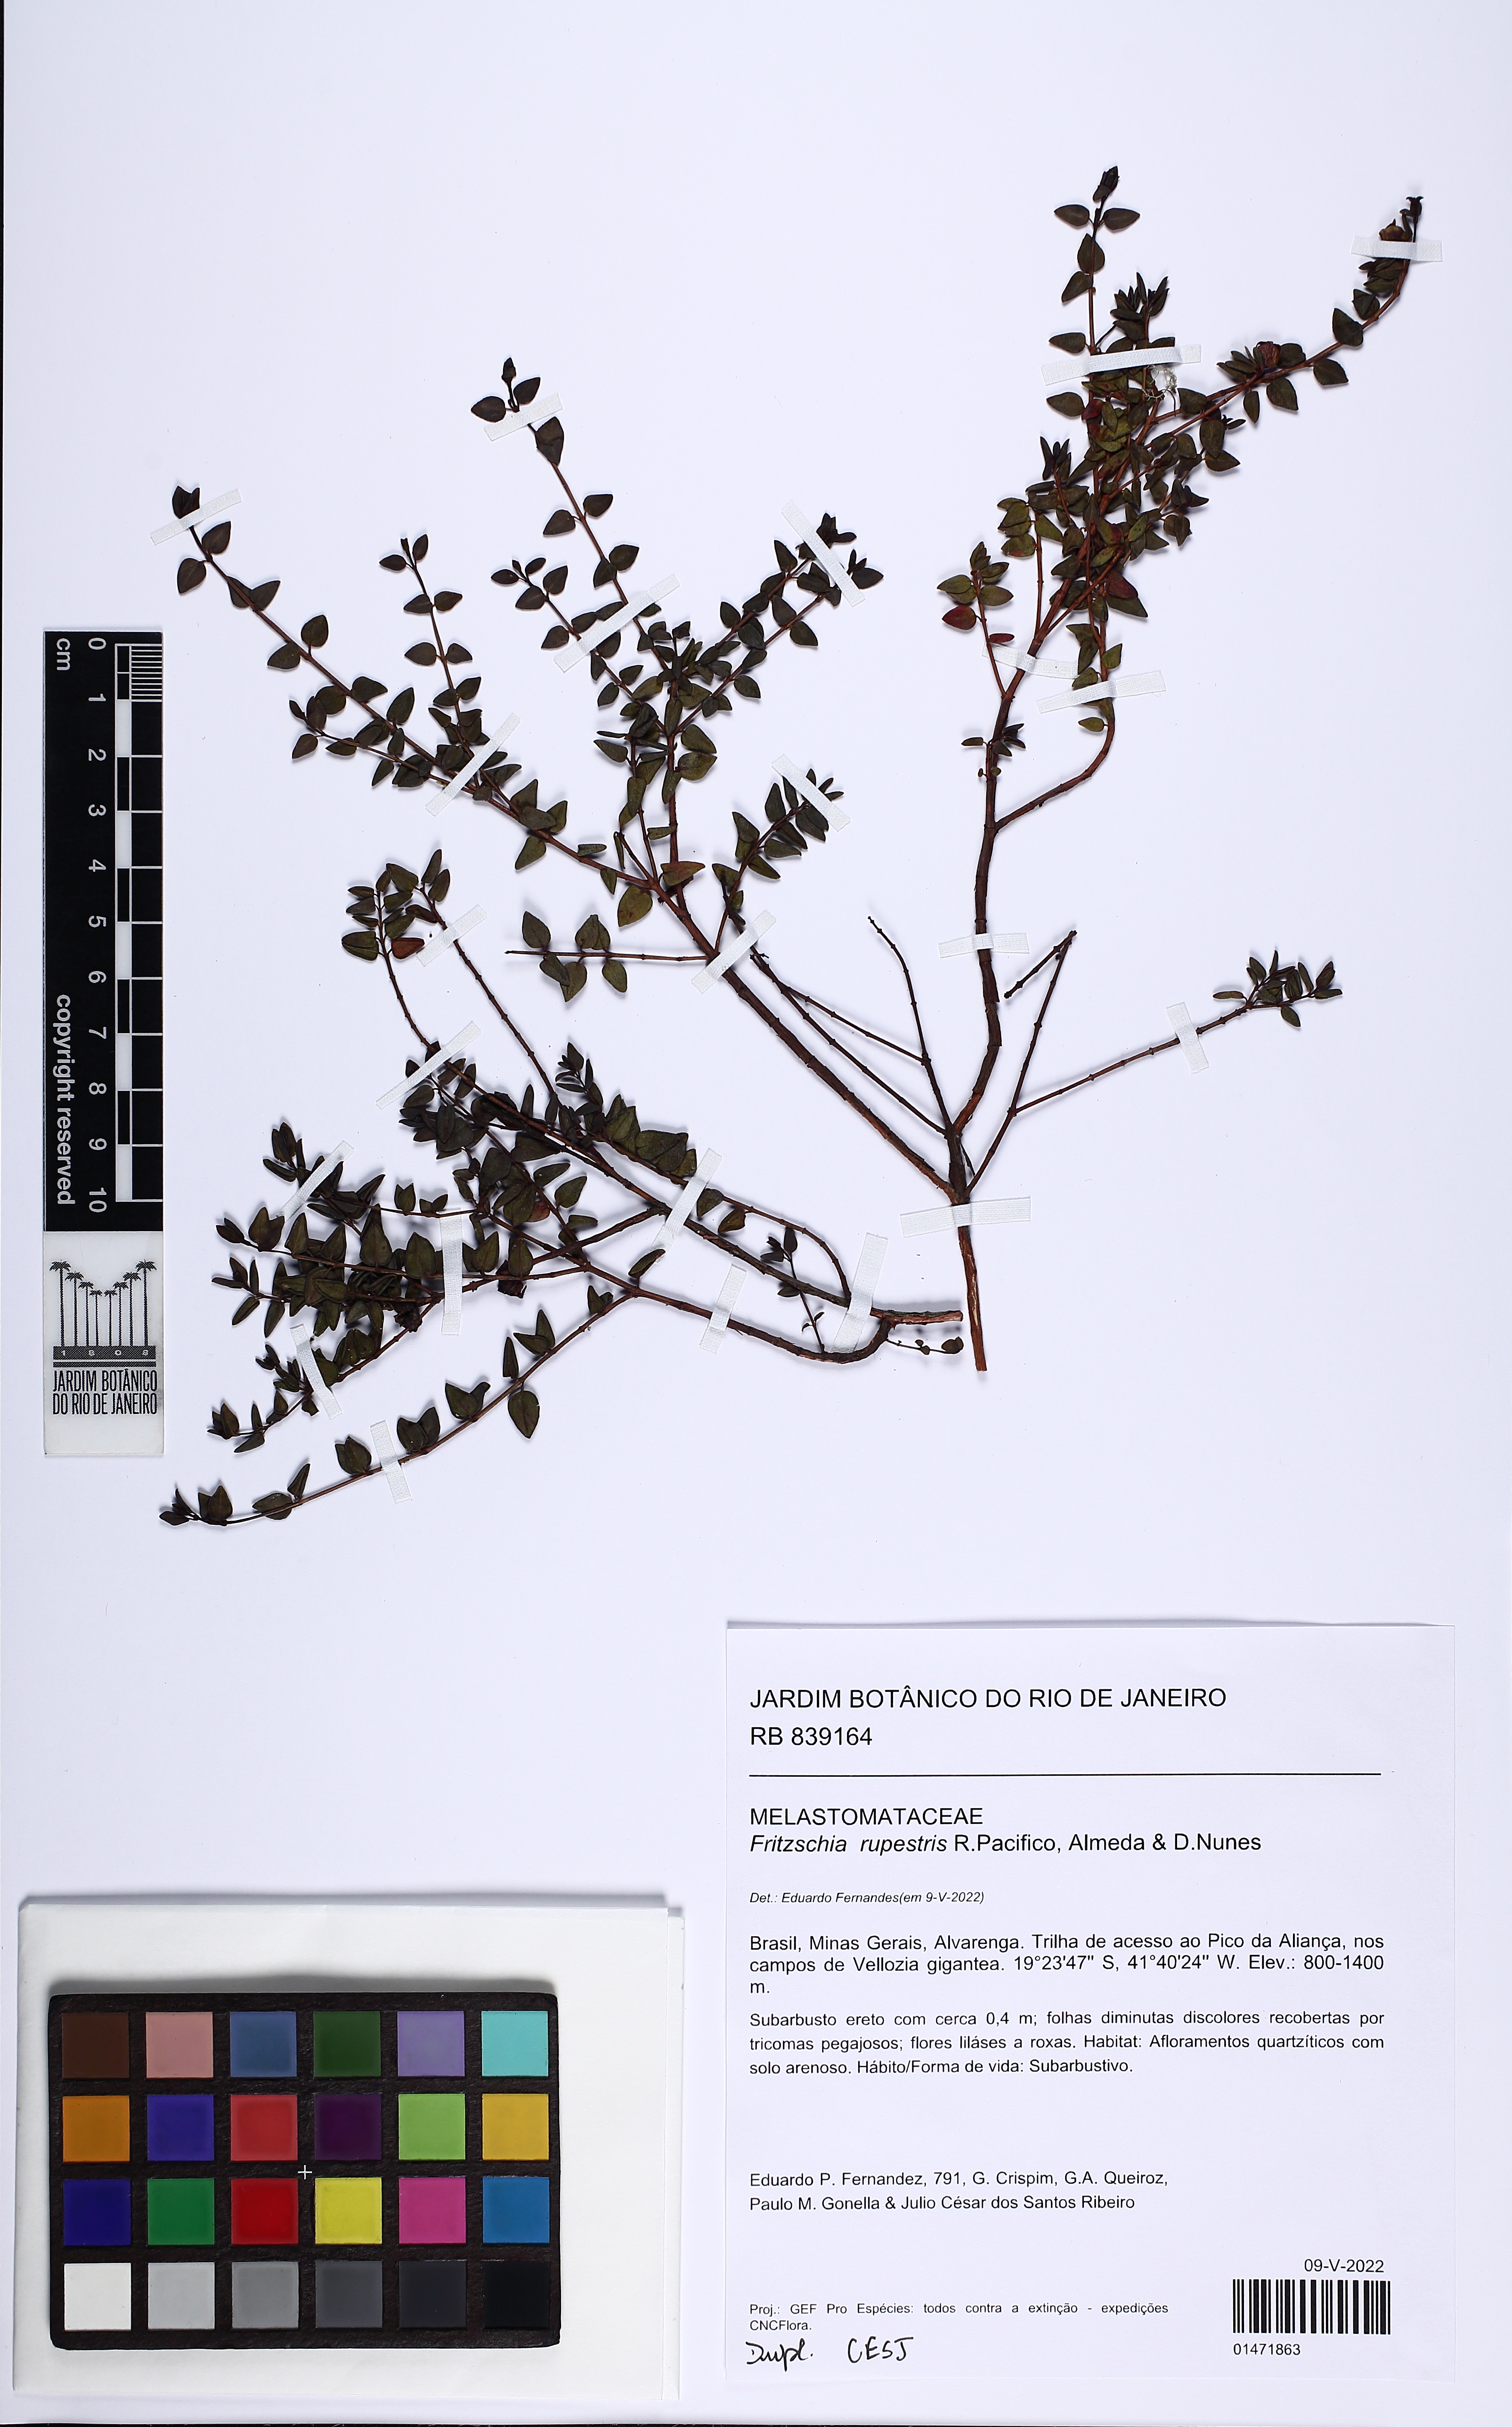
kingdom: Plantae
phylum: Tracheophyta
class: Magnoliopsida
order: Myrtales
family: Melastomataceae
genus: Fritzschia
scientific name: Fritzschia erecta
